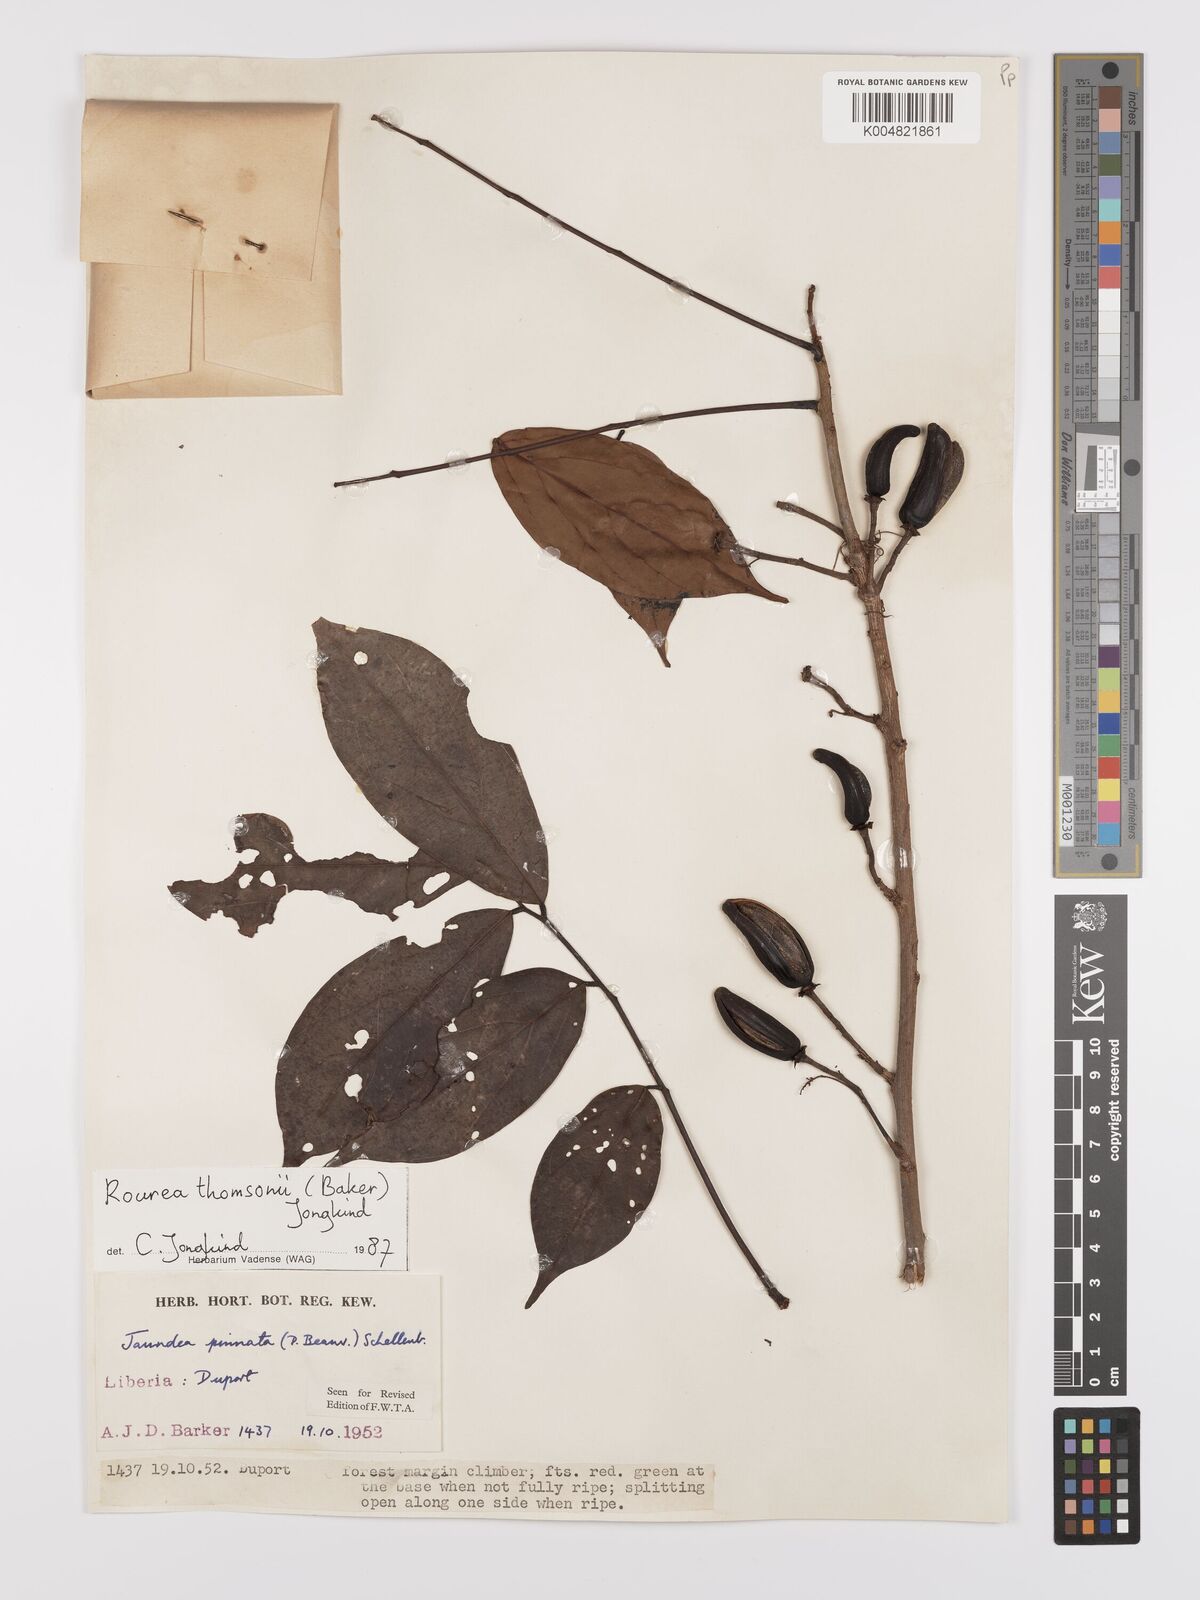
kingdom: Plantae
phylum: Tracheophyta
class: Magnoliopsida
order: Oxalidales
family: Connaraceae
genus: Rourea
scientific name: Rourea pinnata
